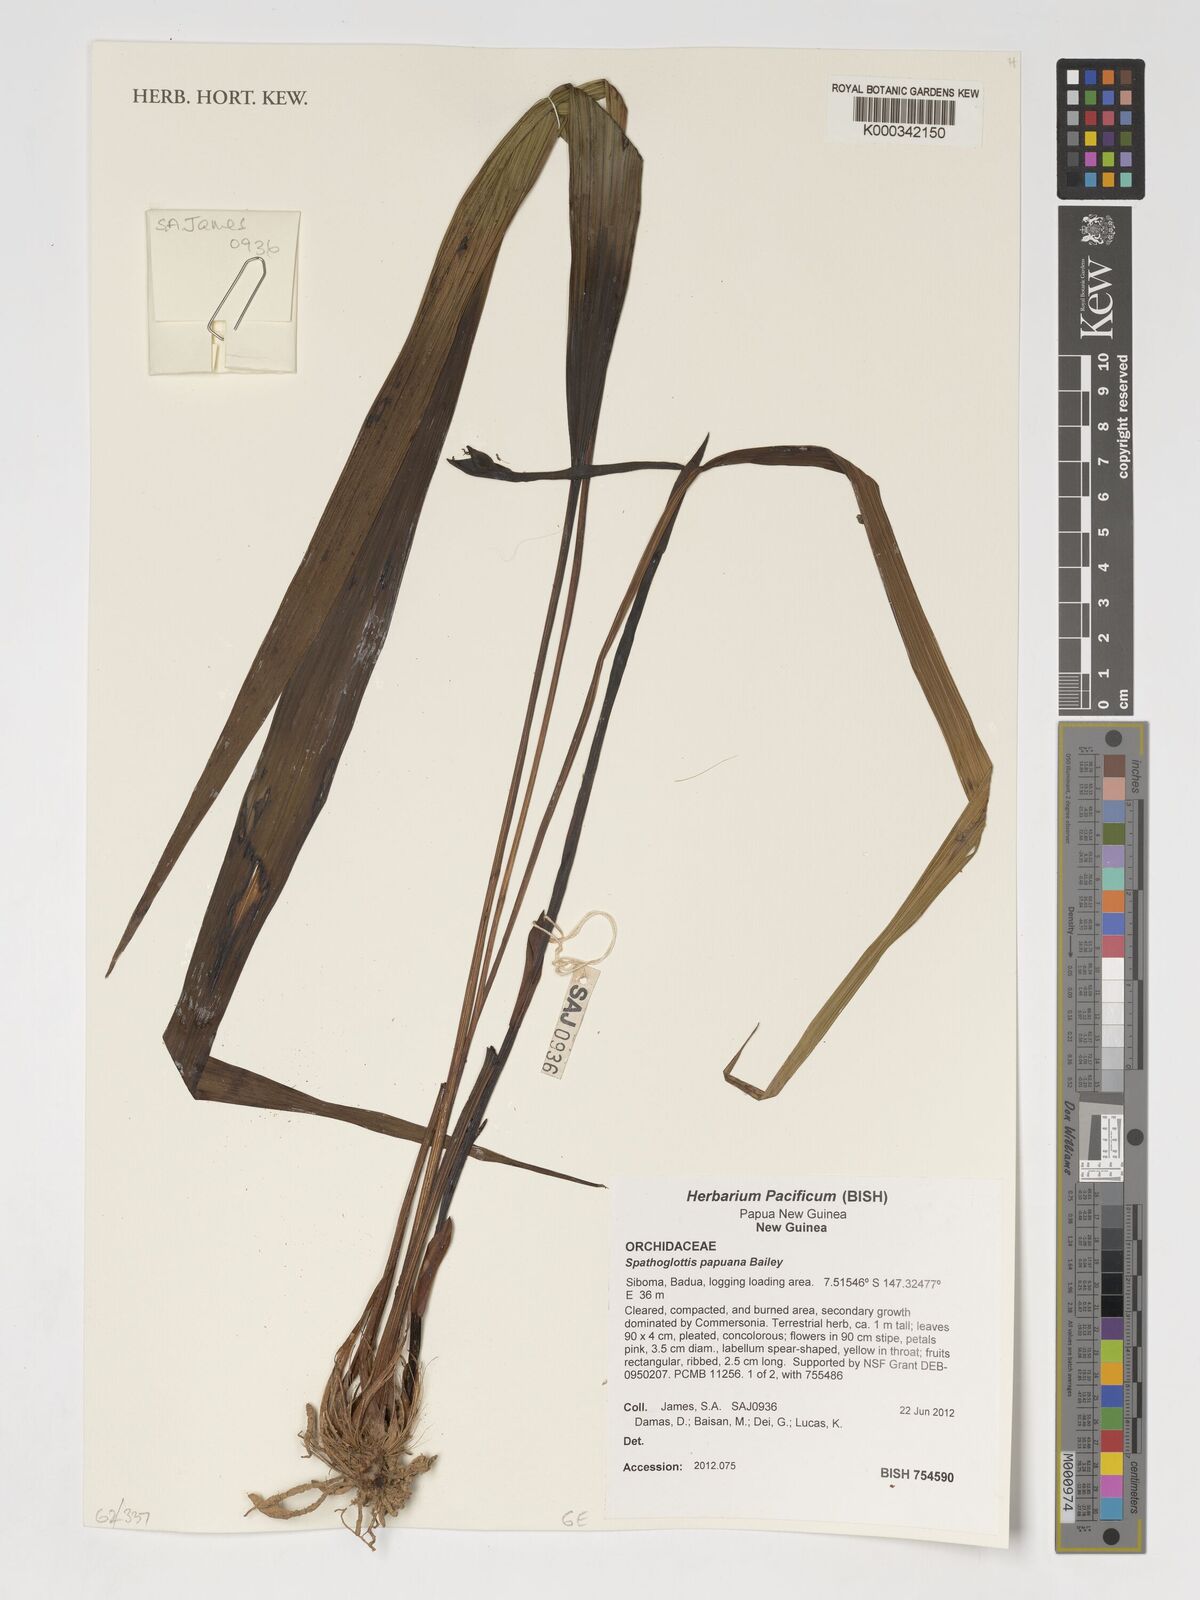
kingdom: Plantae
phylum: Tracheophyta
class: Liliopsida
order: Asparagales
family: Orchidaceae
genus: Spathoglottis
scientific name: Spathoglottis papuana
